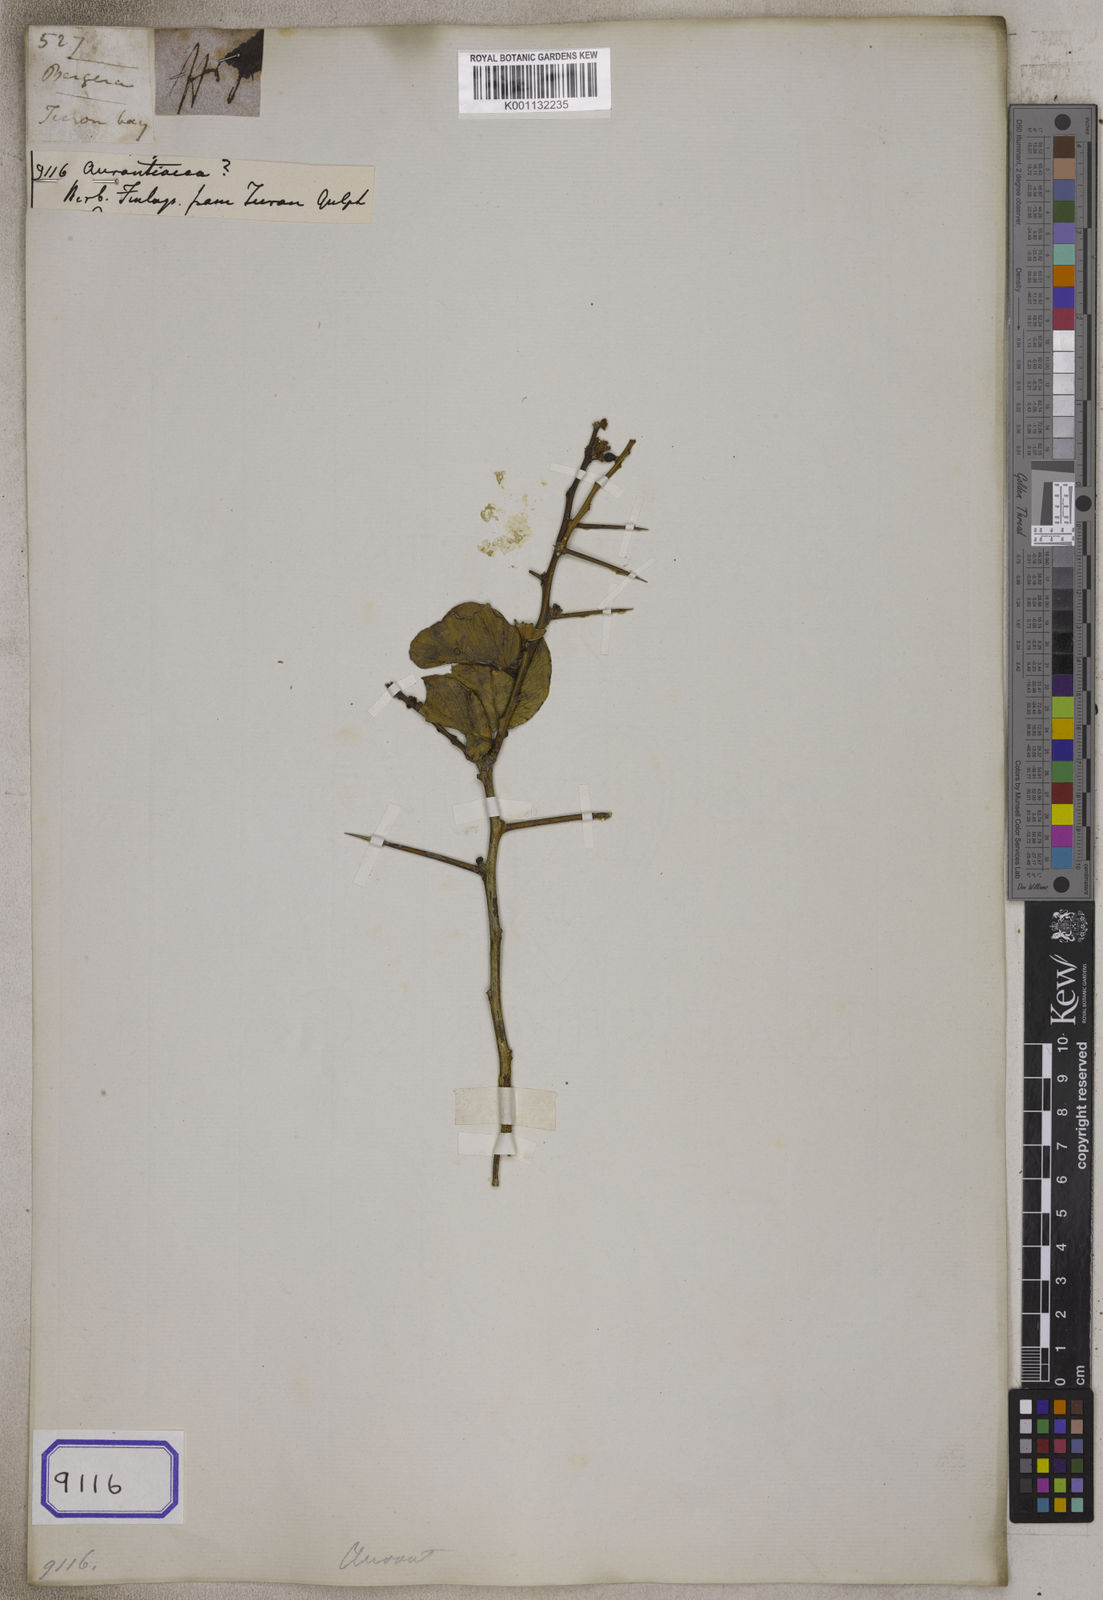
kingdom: Plantae
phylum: Tracheophyta
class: Magnoliopsida
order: Sapindales
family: Rutaceae
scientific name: Rutaceae
